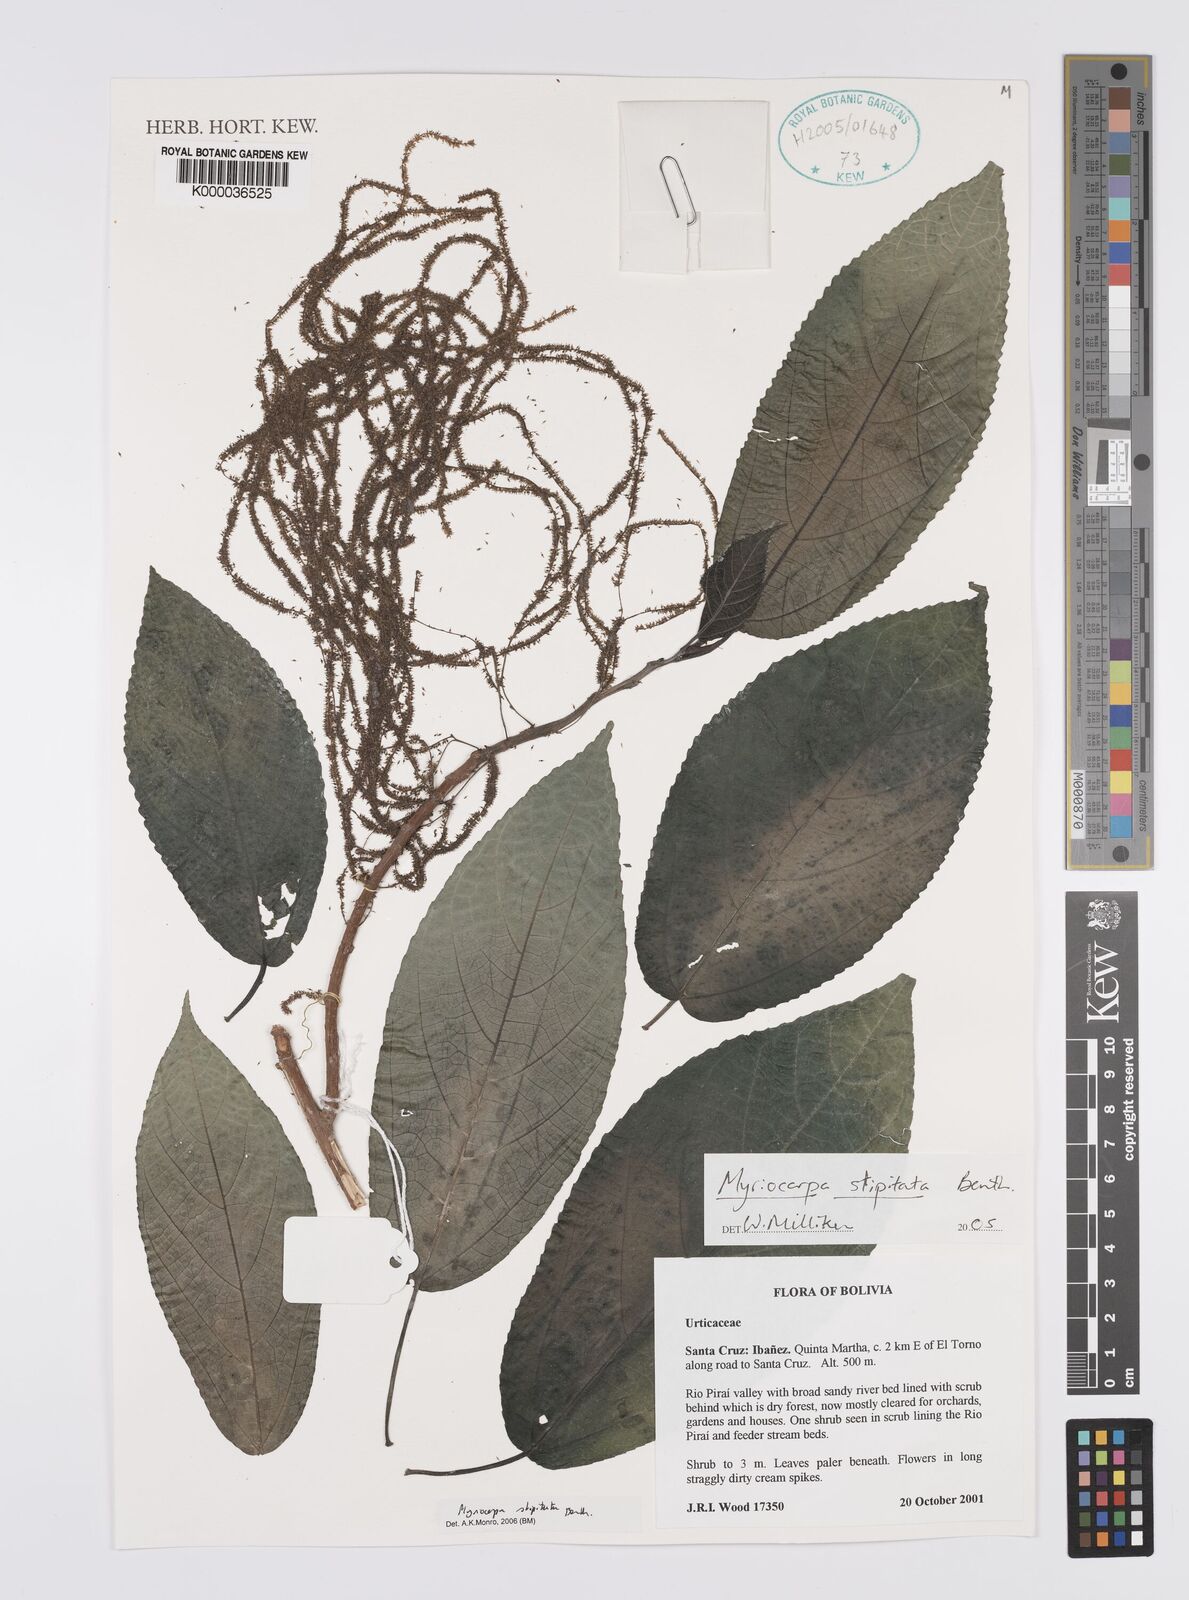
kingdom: Plantae
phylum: Tracheophyta
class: Magnoliopsida
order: Rosales
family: Urticaceae
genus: Myriocarpa
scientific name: Myriocarpa stipitata
